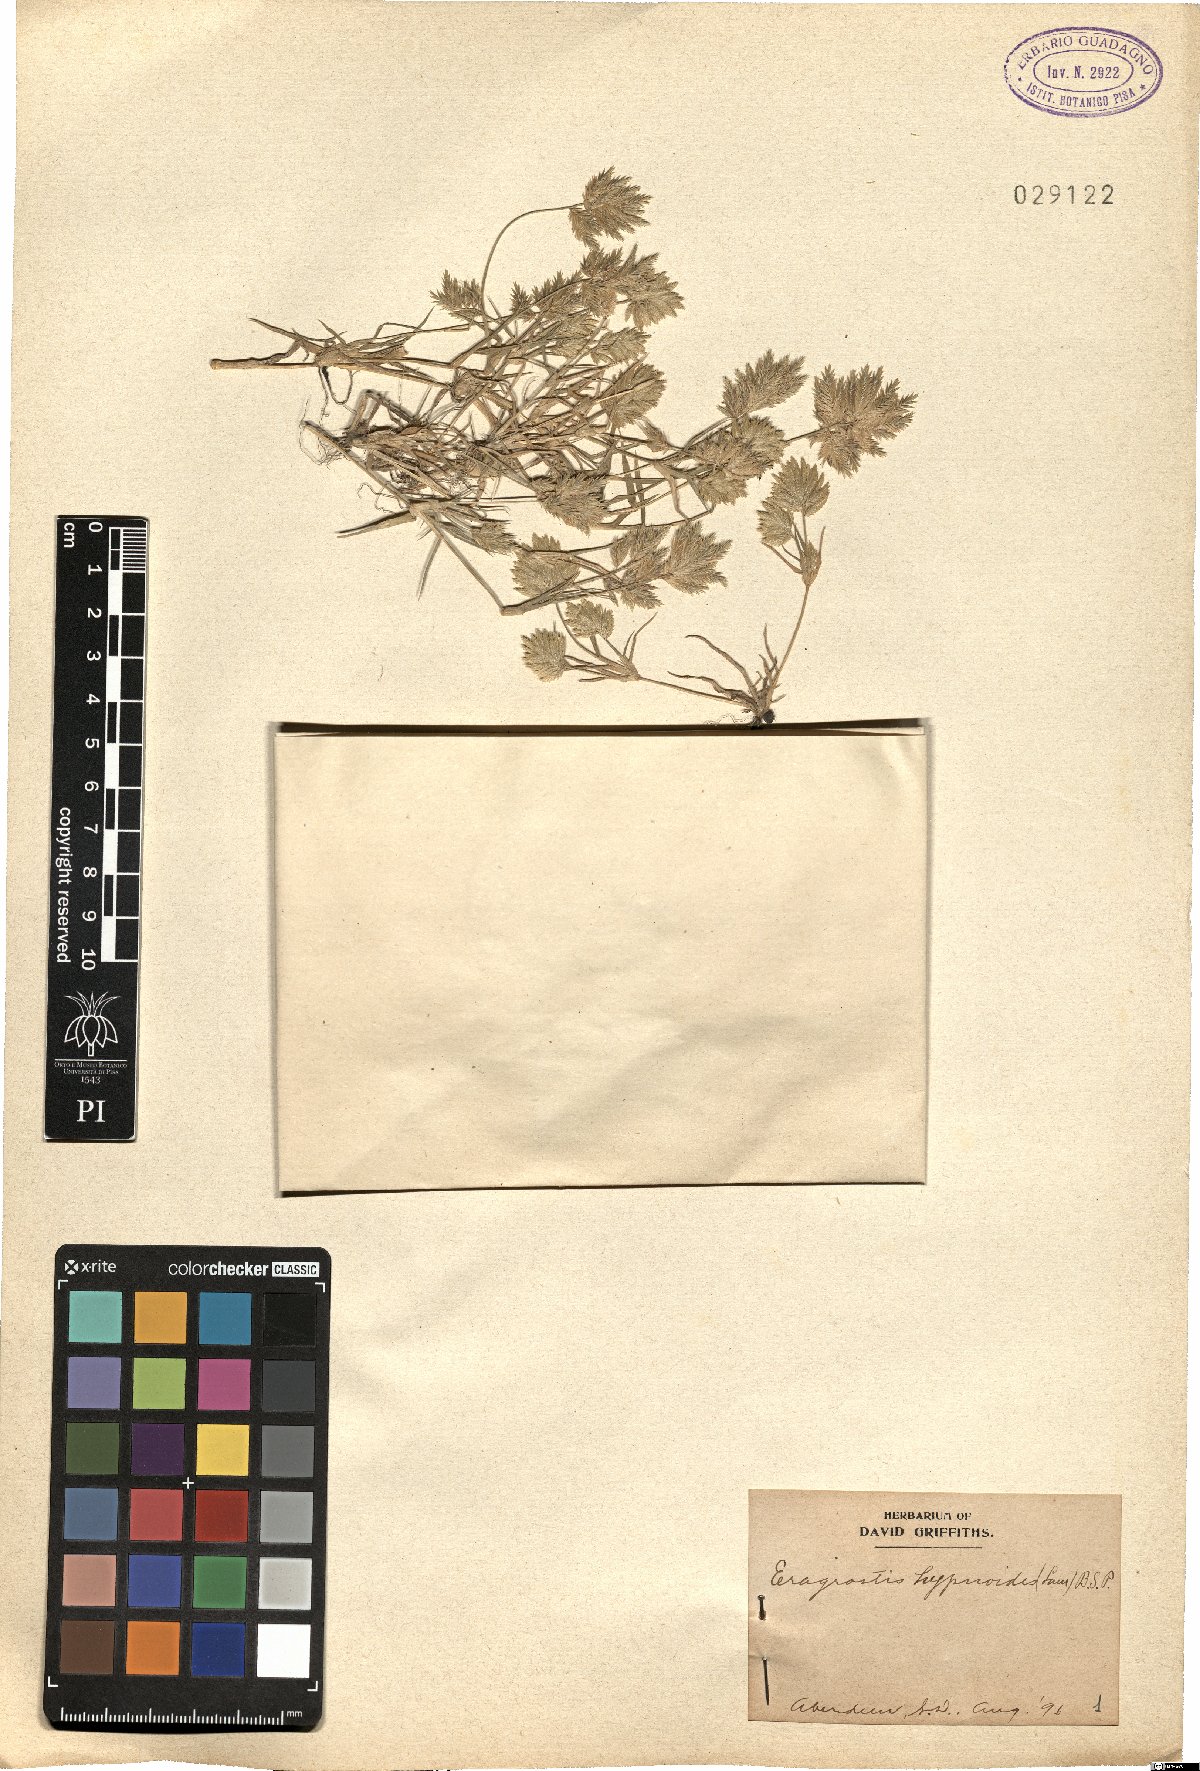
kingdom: Plantae
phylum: Tracheophyta
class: Liliopsida
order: Poales
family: Poaceae
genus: Eragrostis
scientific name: Eragrostis hypnoides
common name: Creeping love grass
